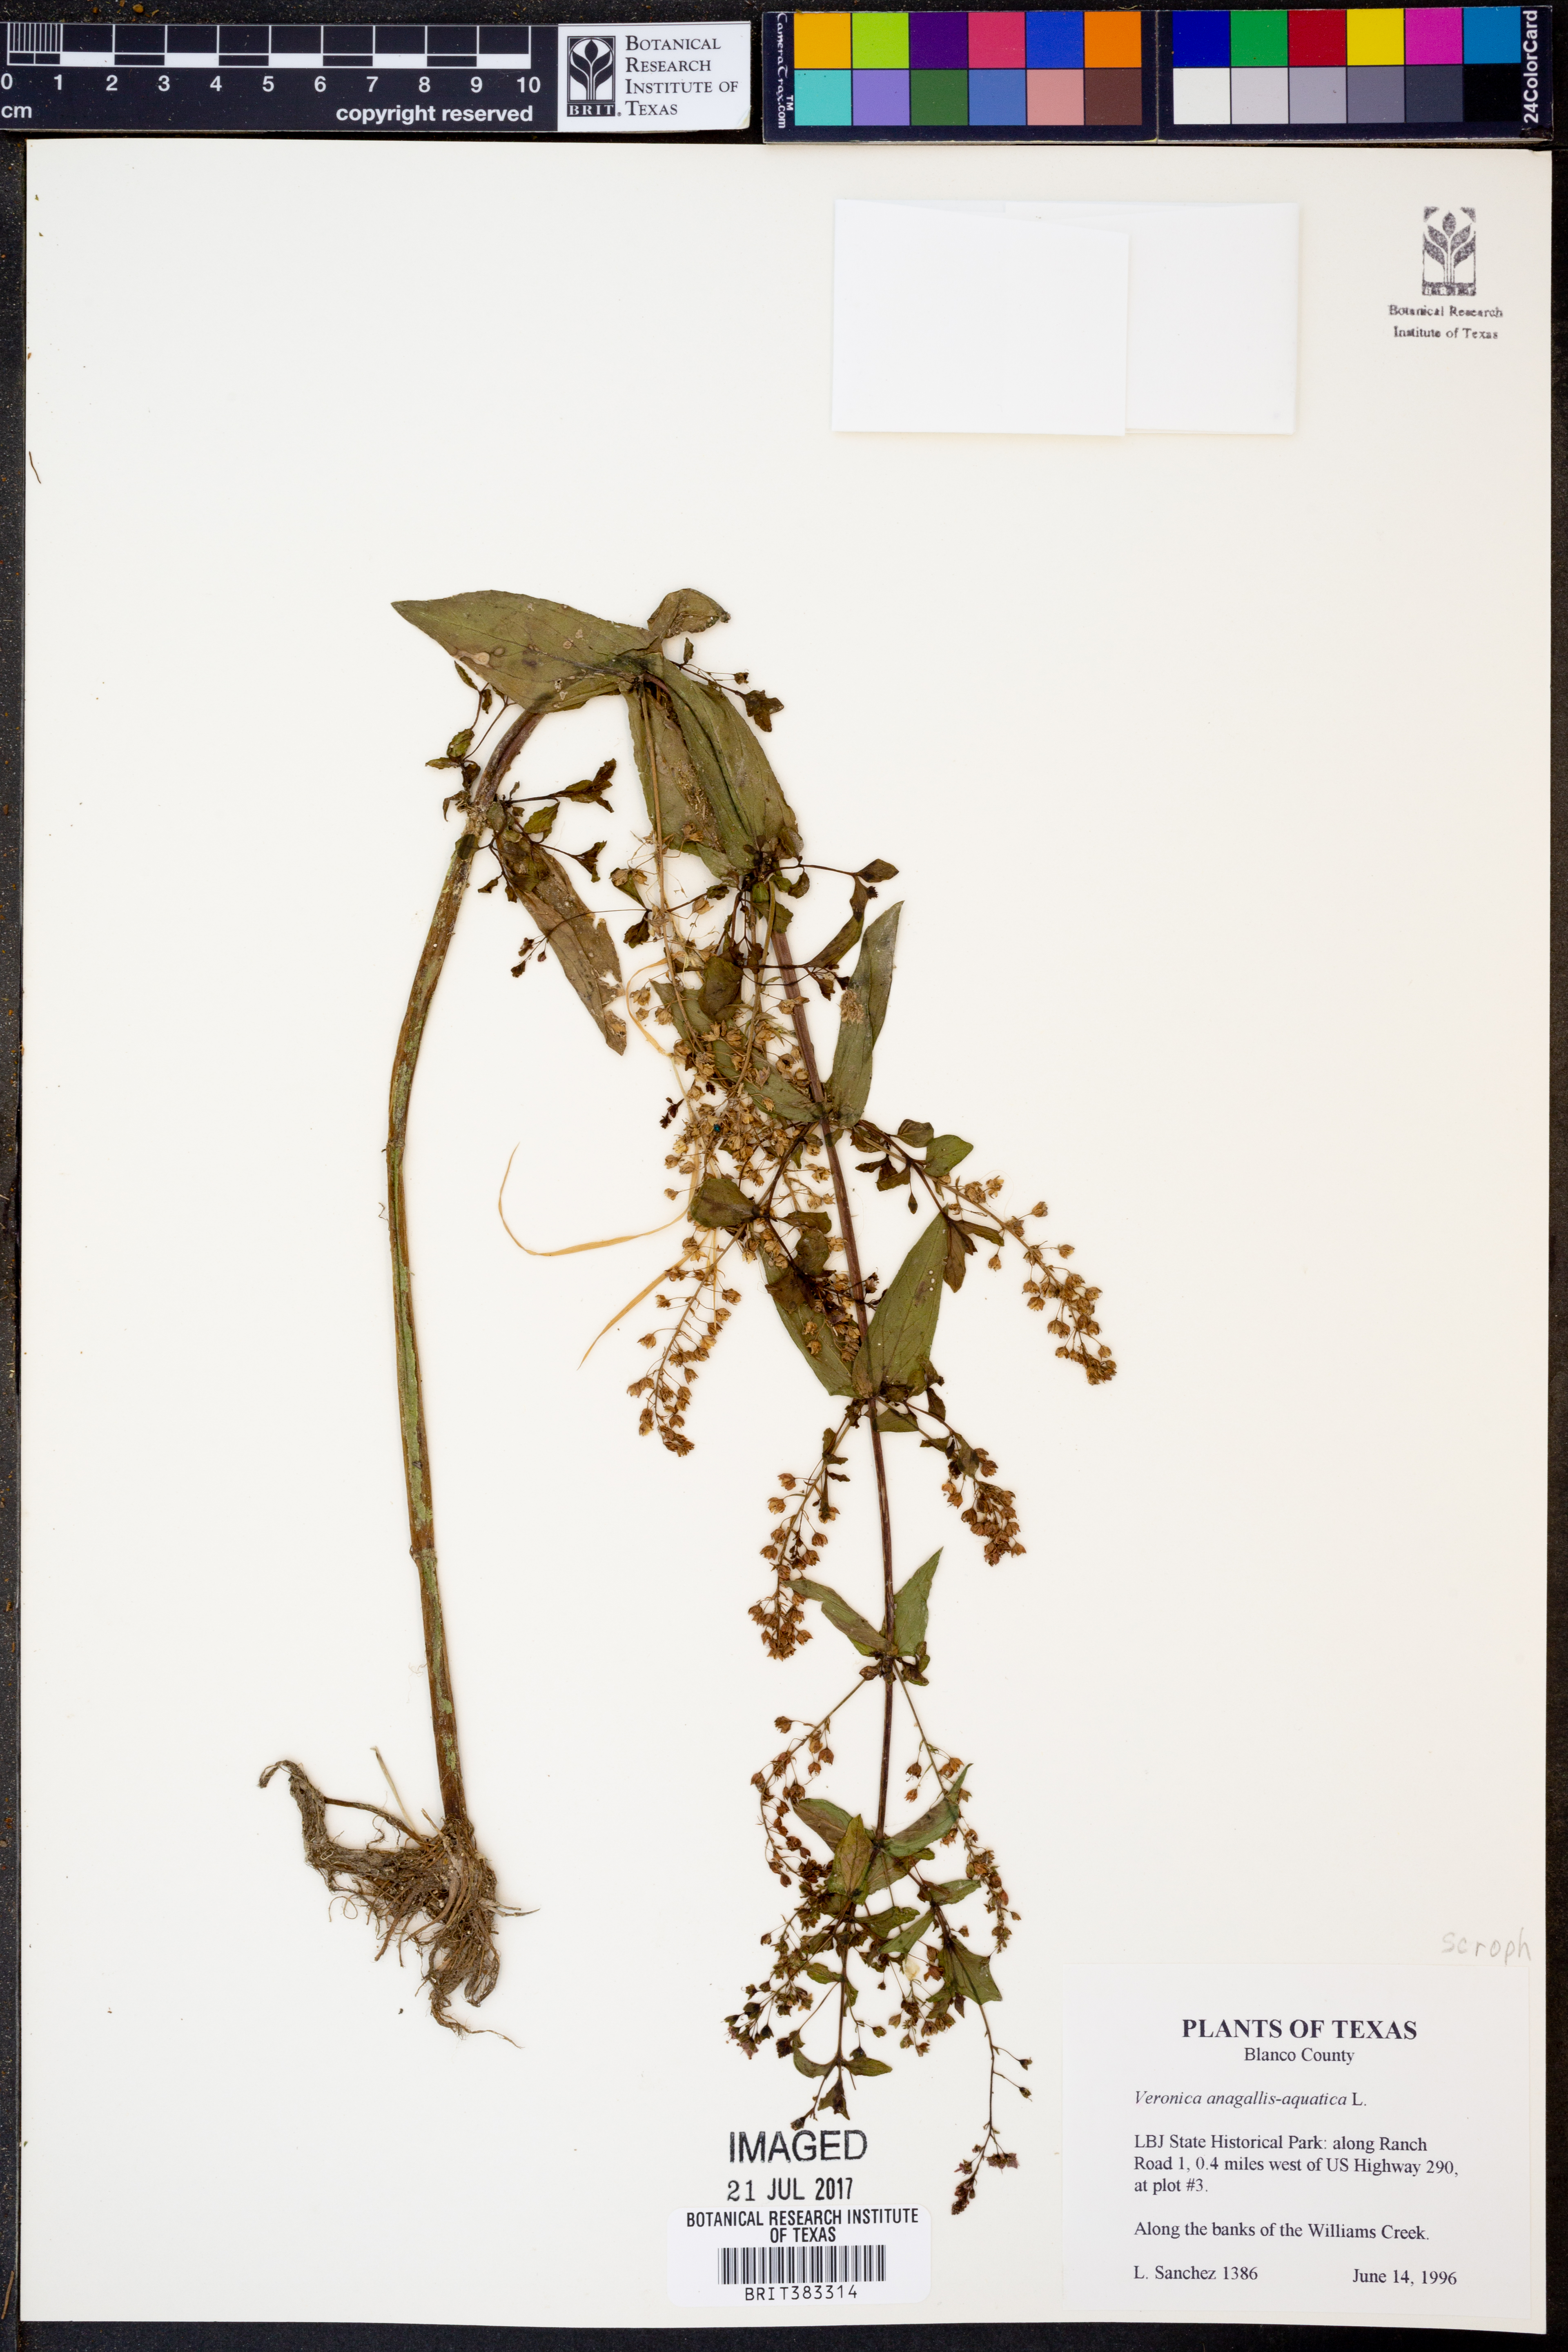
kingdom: Plantae
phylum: Tracheophyta
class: Magnoliopsida
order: Lamiales
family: Plantaginaceae
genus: Veronica
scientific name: Veronica anagallis-aquatica
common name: Water speedwell
